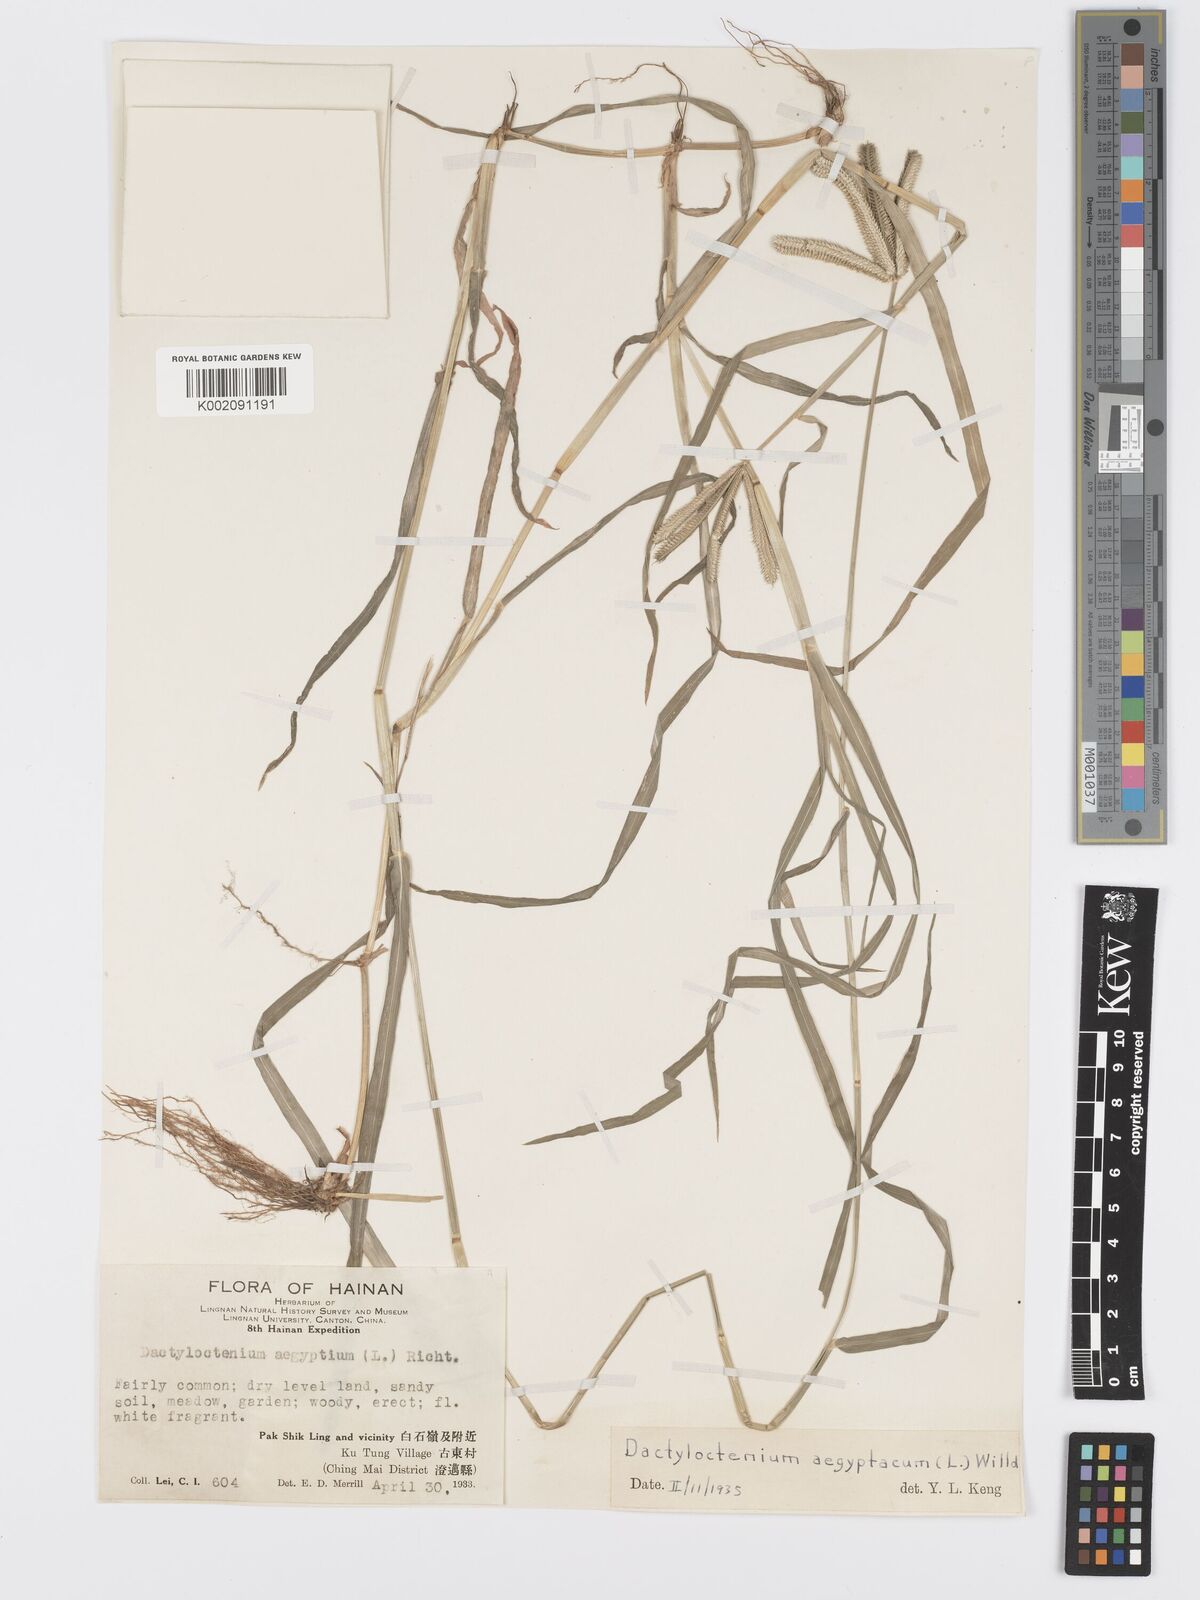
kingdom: Plantae
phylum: Tracheophyta
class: Liliopsida
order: Poales
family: Poaceae
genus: Dactyloctenium
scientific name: Dactyloctenium aegyptium
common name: Egyptian grass
